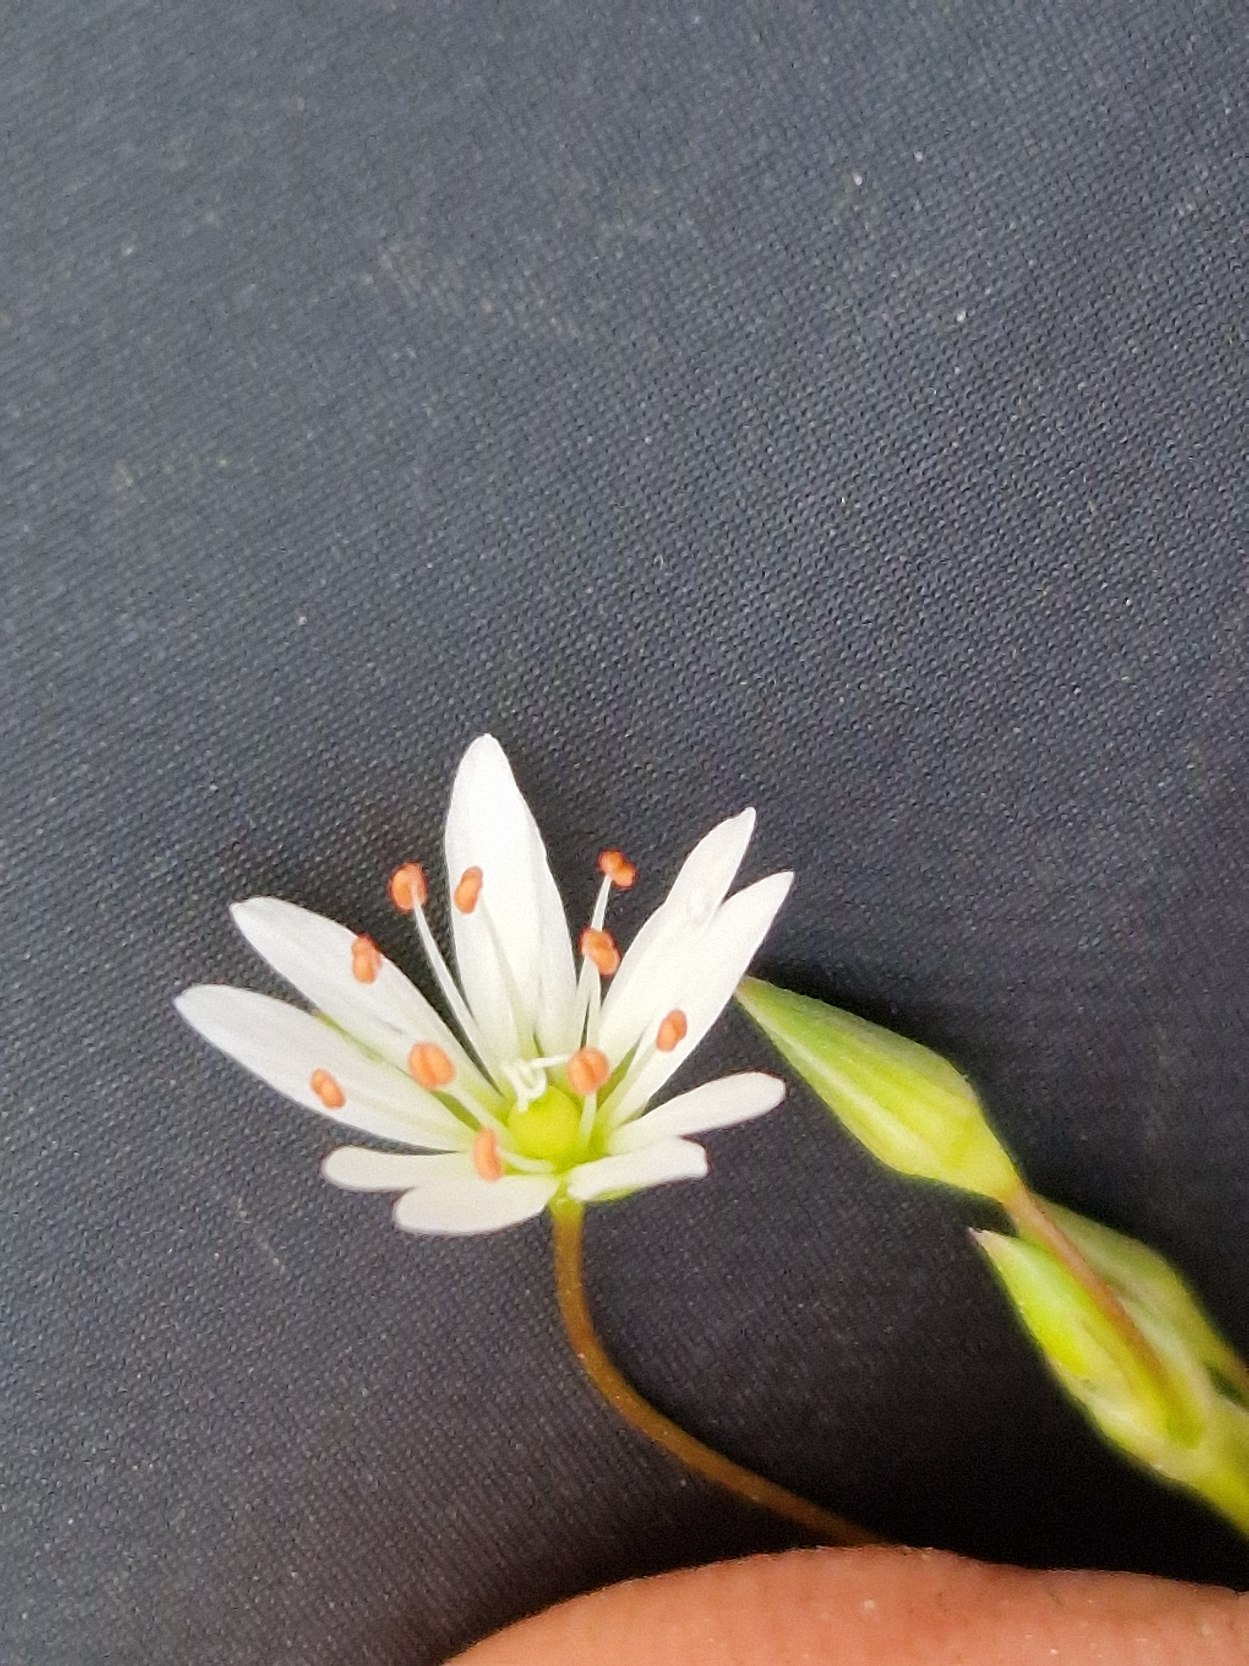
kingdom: Plantae
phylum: Tracheophyta
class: Magnoliopsida
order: Caryophyllales
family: Caryophyllaceae
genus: Stellaria
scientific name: Stellaria graminea
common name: Græsbladet fladstjerne
